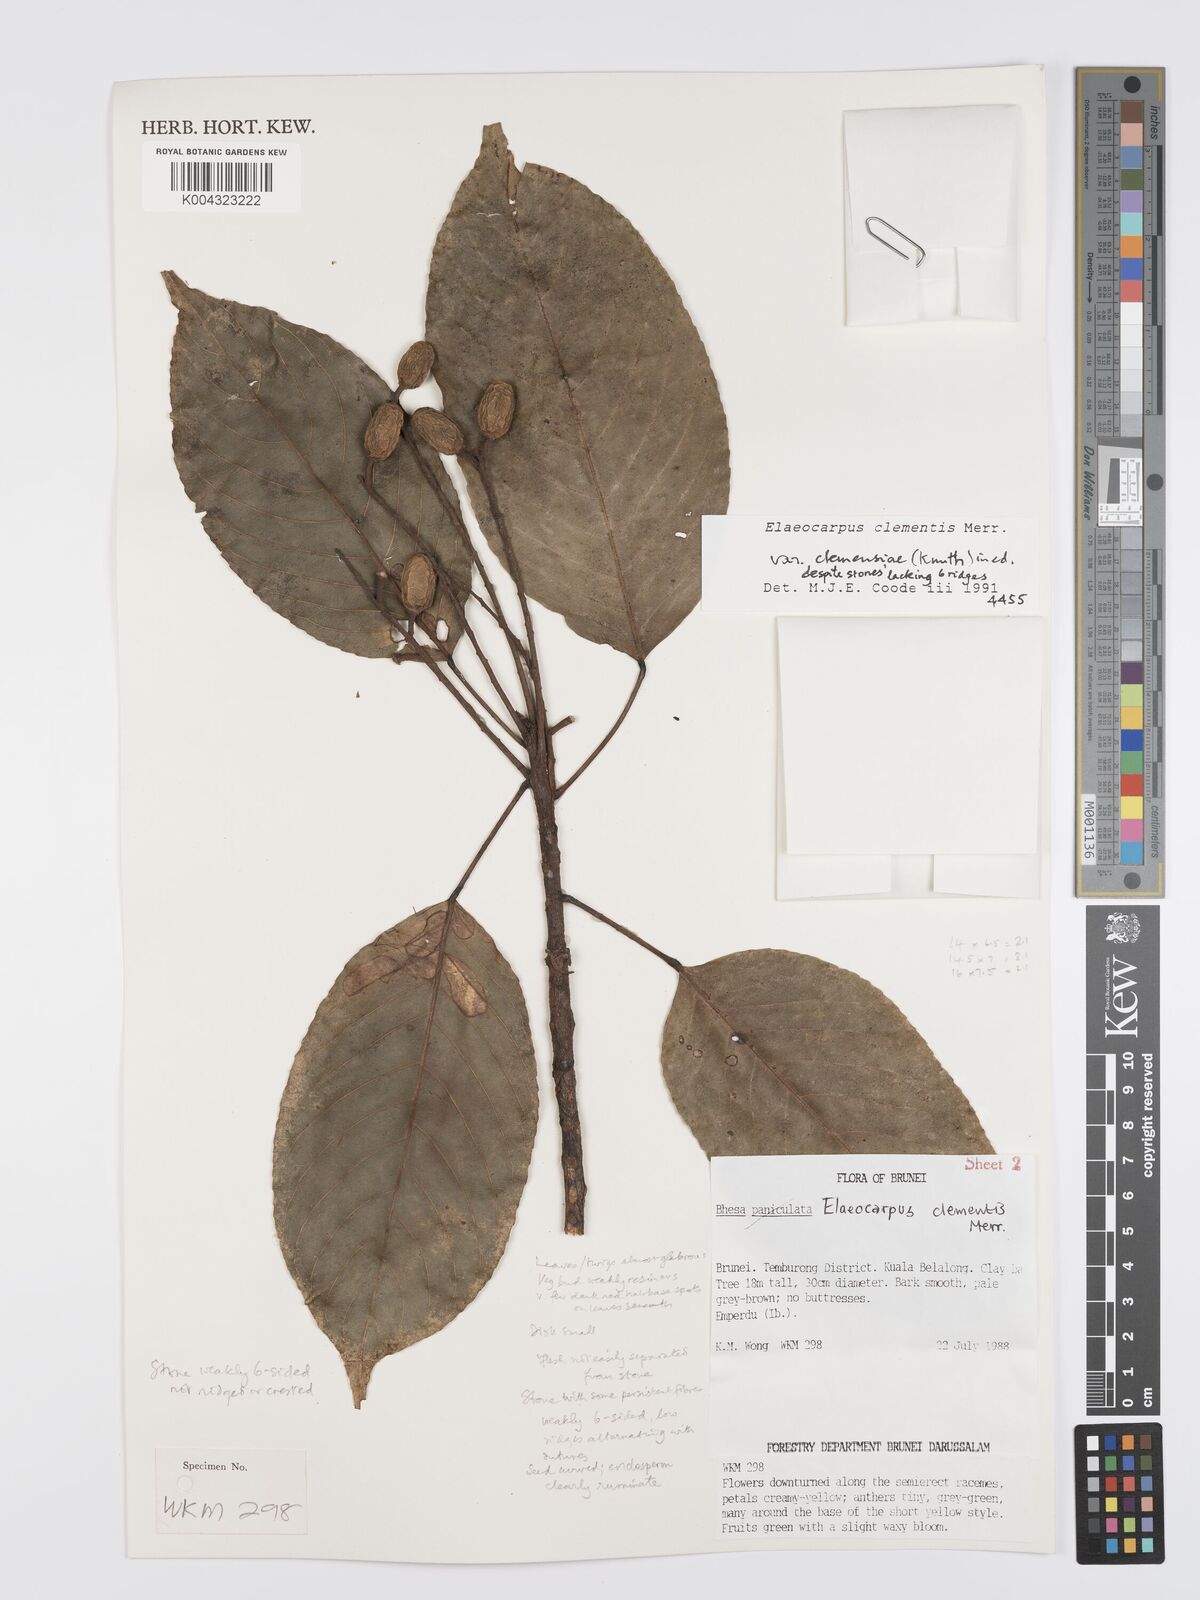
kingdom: Plantae
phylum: Tracheophyta
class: Magnoliopsida
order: Oxalidales
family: Elaeocarpaceae
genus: Elaeocarpus
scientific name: Elaeocarpus clementis
